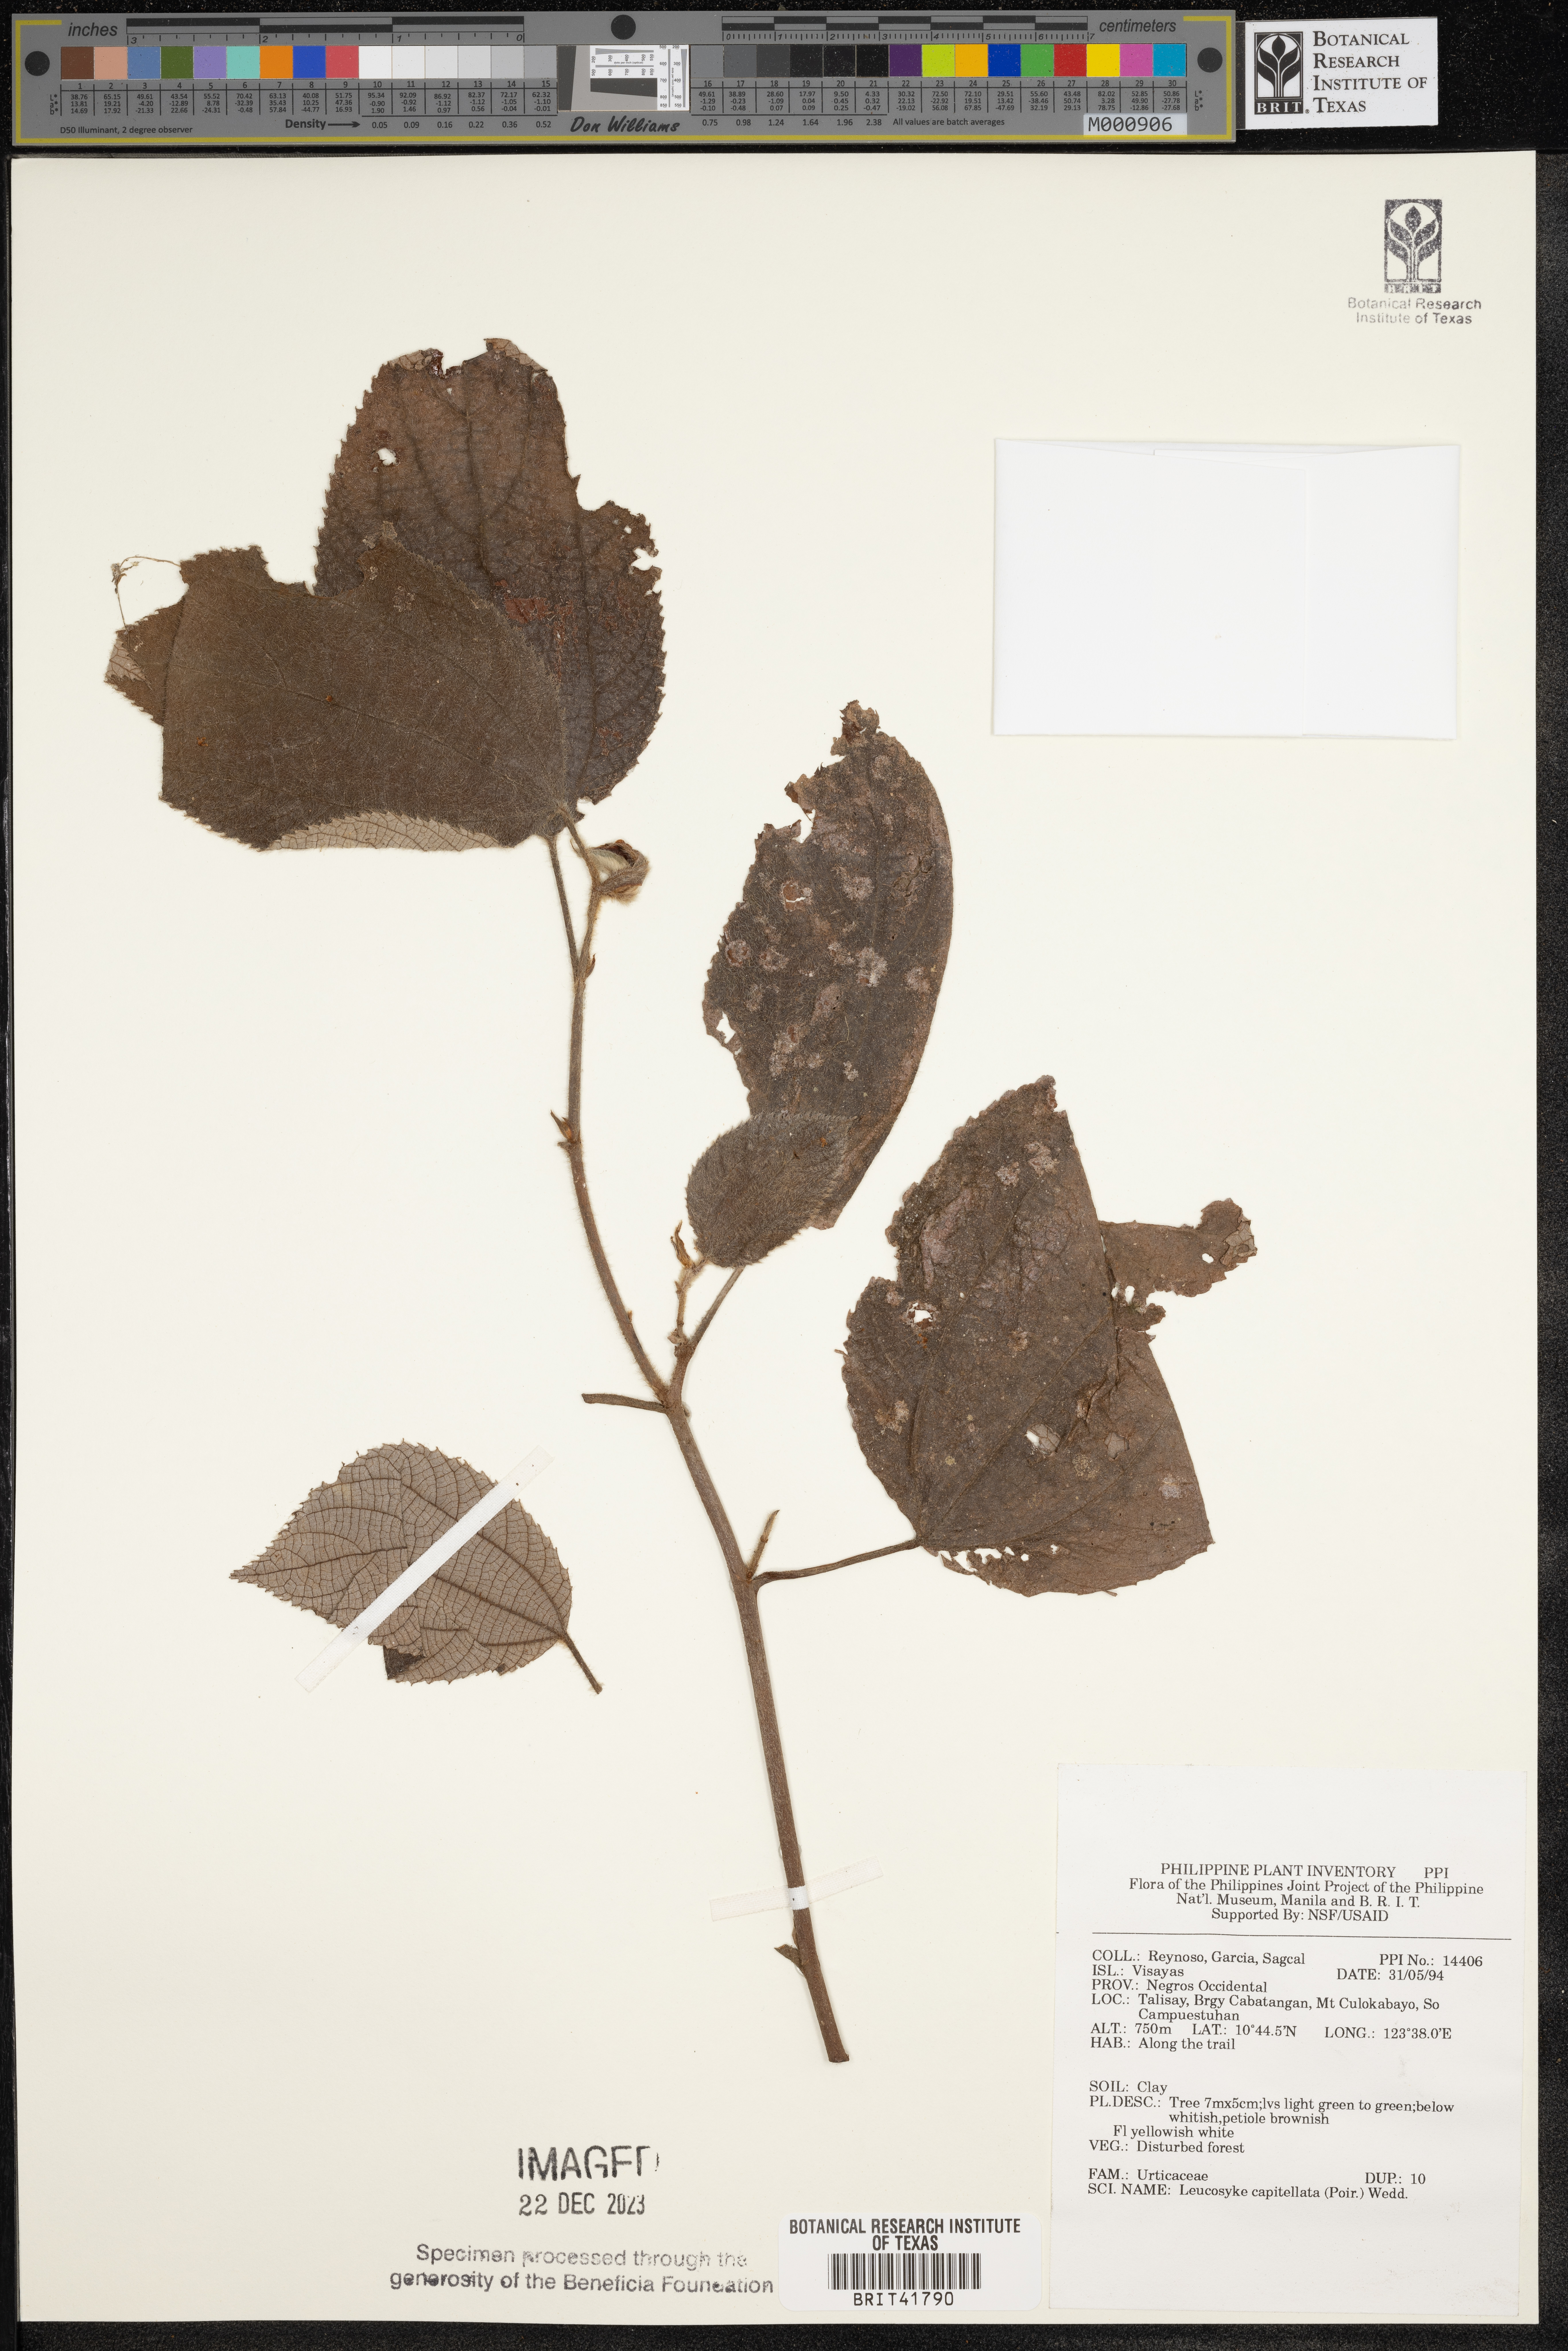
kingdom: Plantae
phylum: Tracheophyta
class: Magnoliopsida
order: Rosales
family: Urticaceae
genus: Leucosyke
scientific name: Leucosyke capitellata
